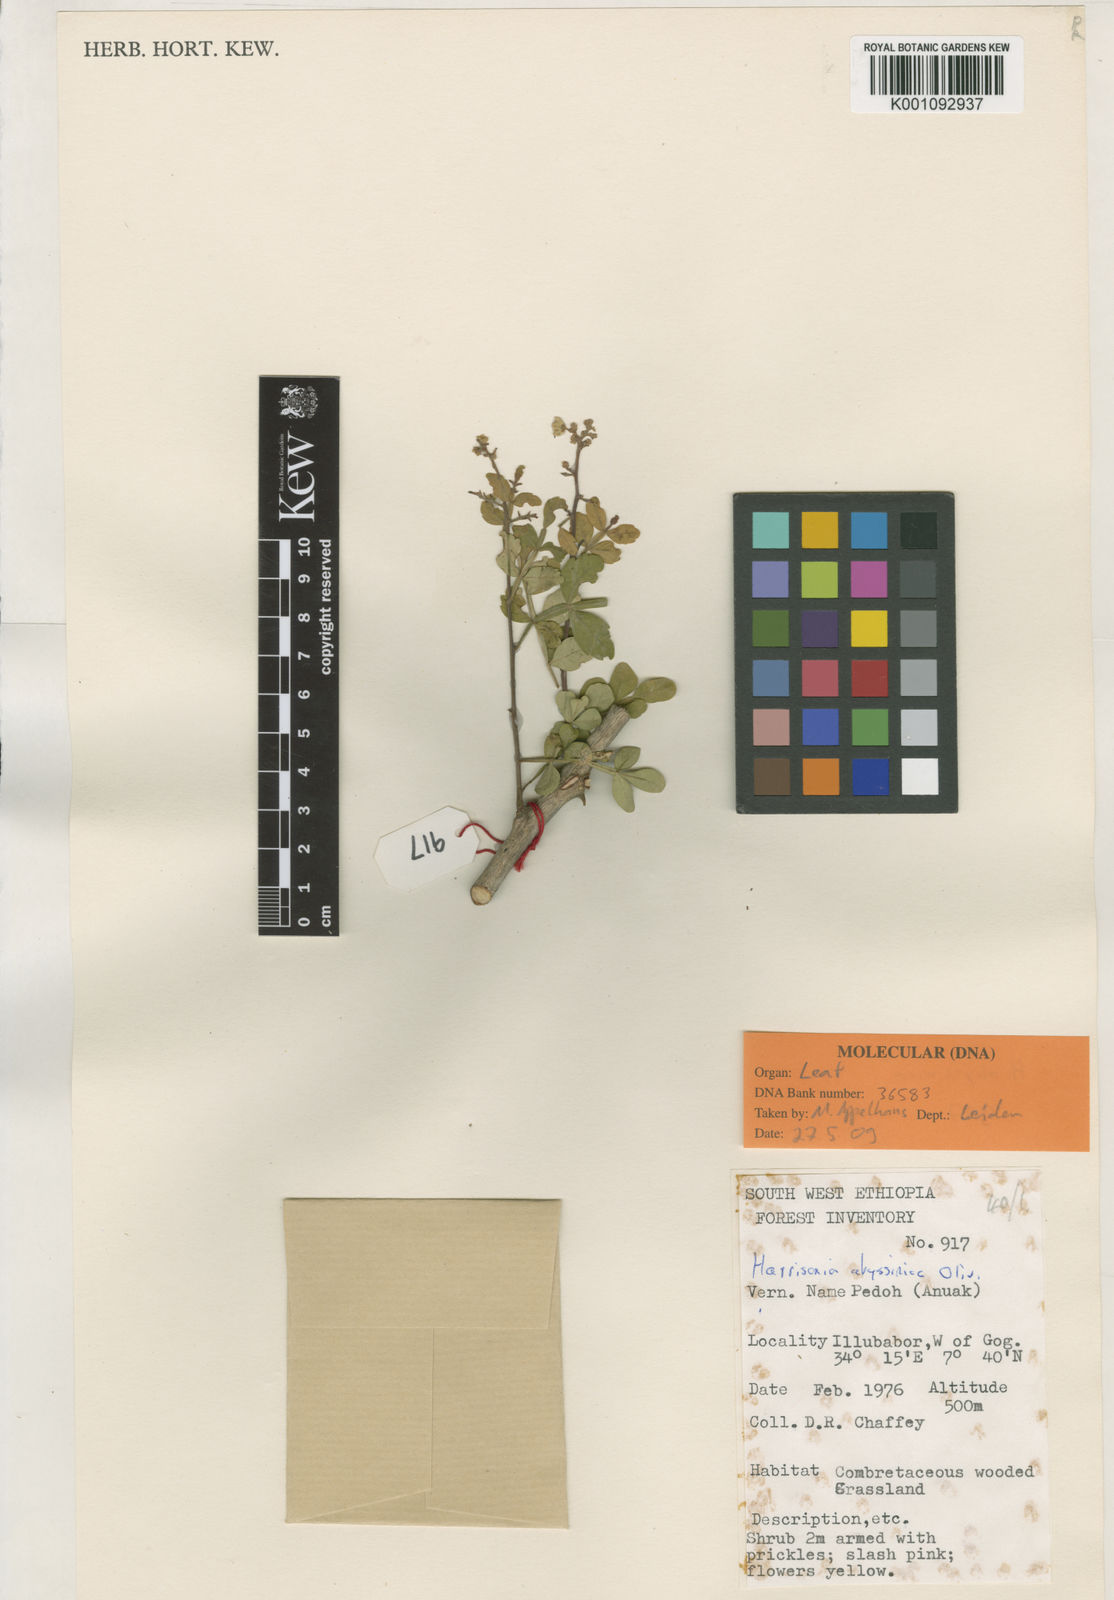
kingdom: Plantae
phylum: Tracheophyta
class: Magnoliopsida
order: Sapindales
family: Rutaceae
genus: Harrisonia
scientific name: Harrisonia abyssinica
